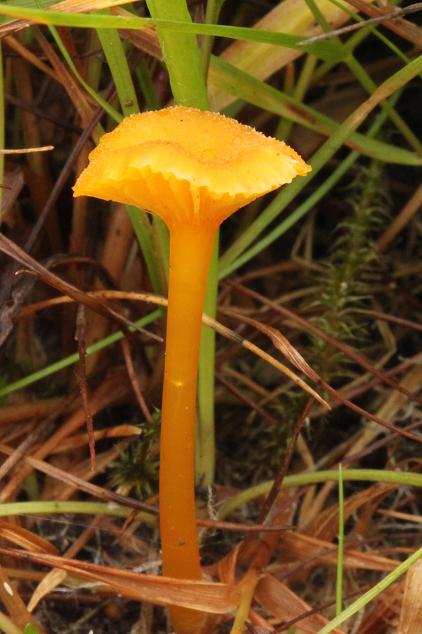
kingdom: Fungi
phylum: Basidiomycota
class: Agaricomycetes
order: Agaricales
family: Hygrophoraceae
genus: Hygrocybe
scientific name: Hygrocybe cantharellus
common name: kantarel-vokshat
